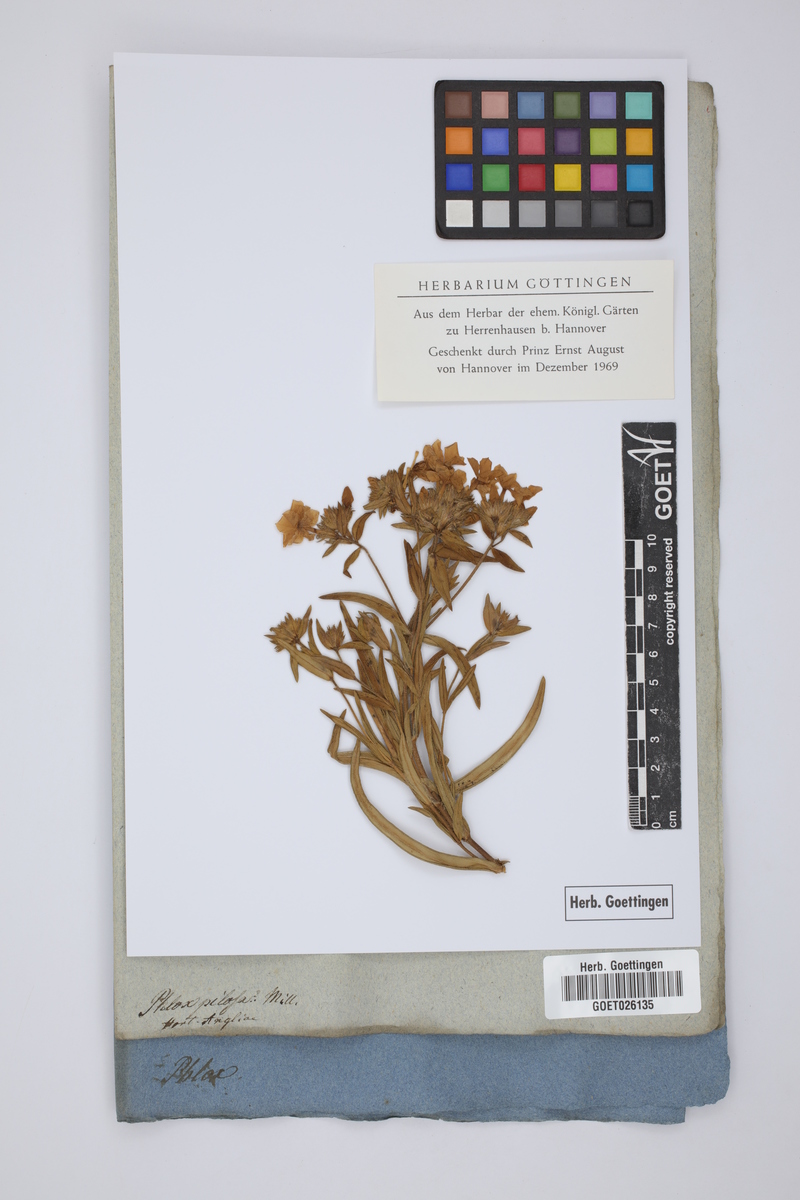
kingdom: Plantae
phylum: Tracheophyta
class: Magnoliopsida
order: Ericales
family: Polemoniaceae
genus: Phlox
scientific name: Phlox pilosa
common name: Prairie phlox
